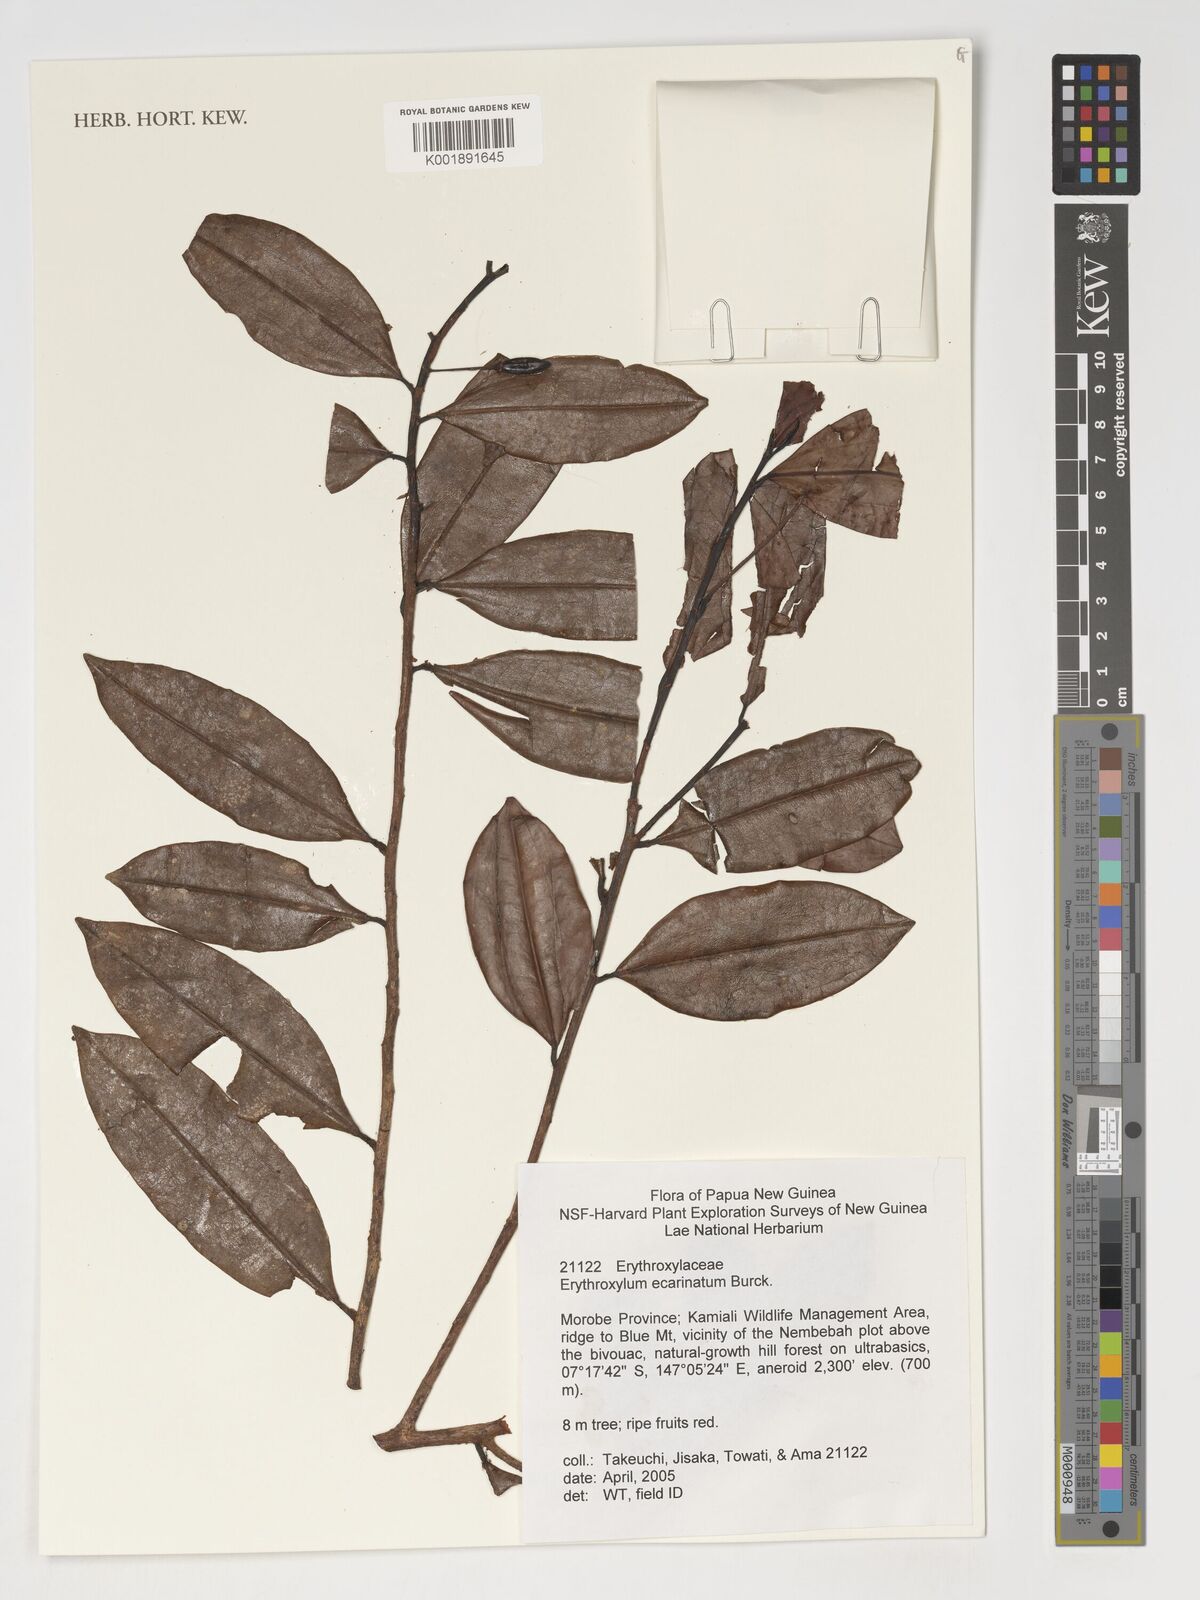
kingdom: Plantae
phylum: Tracheophyta
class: Magnoliopsida
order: Malpighiales
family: Erythroxylaceae
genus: Erythroxylum
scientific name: Erythroxylum
